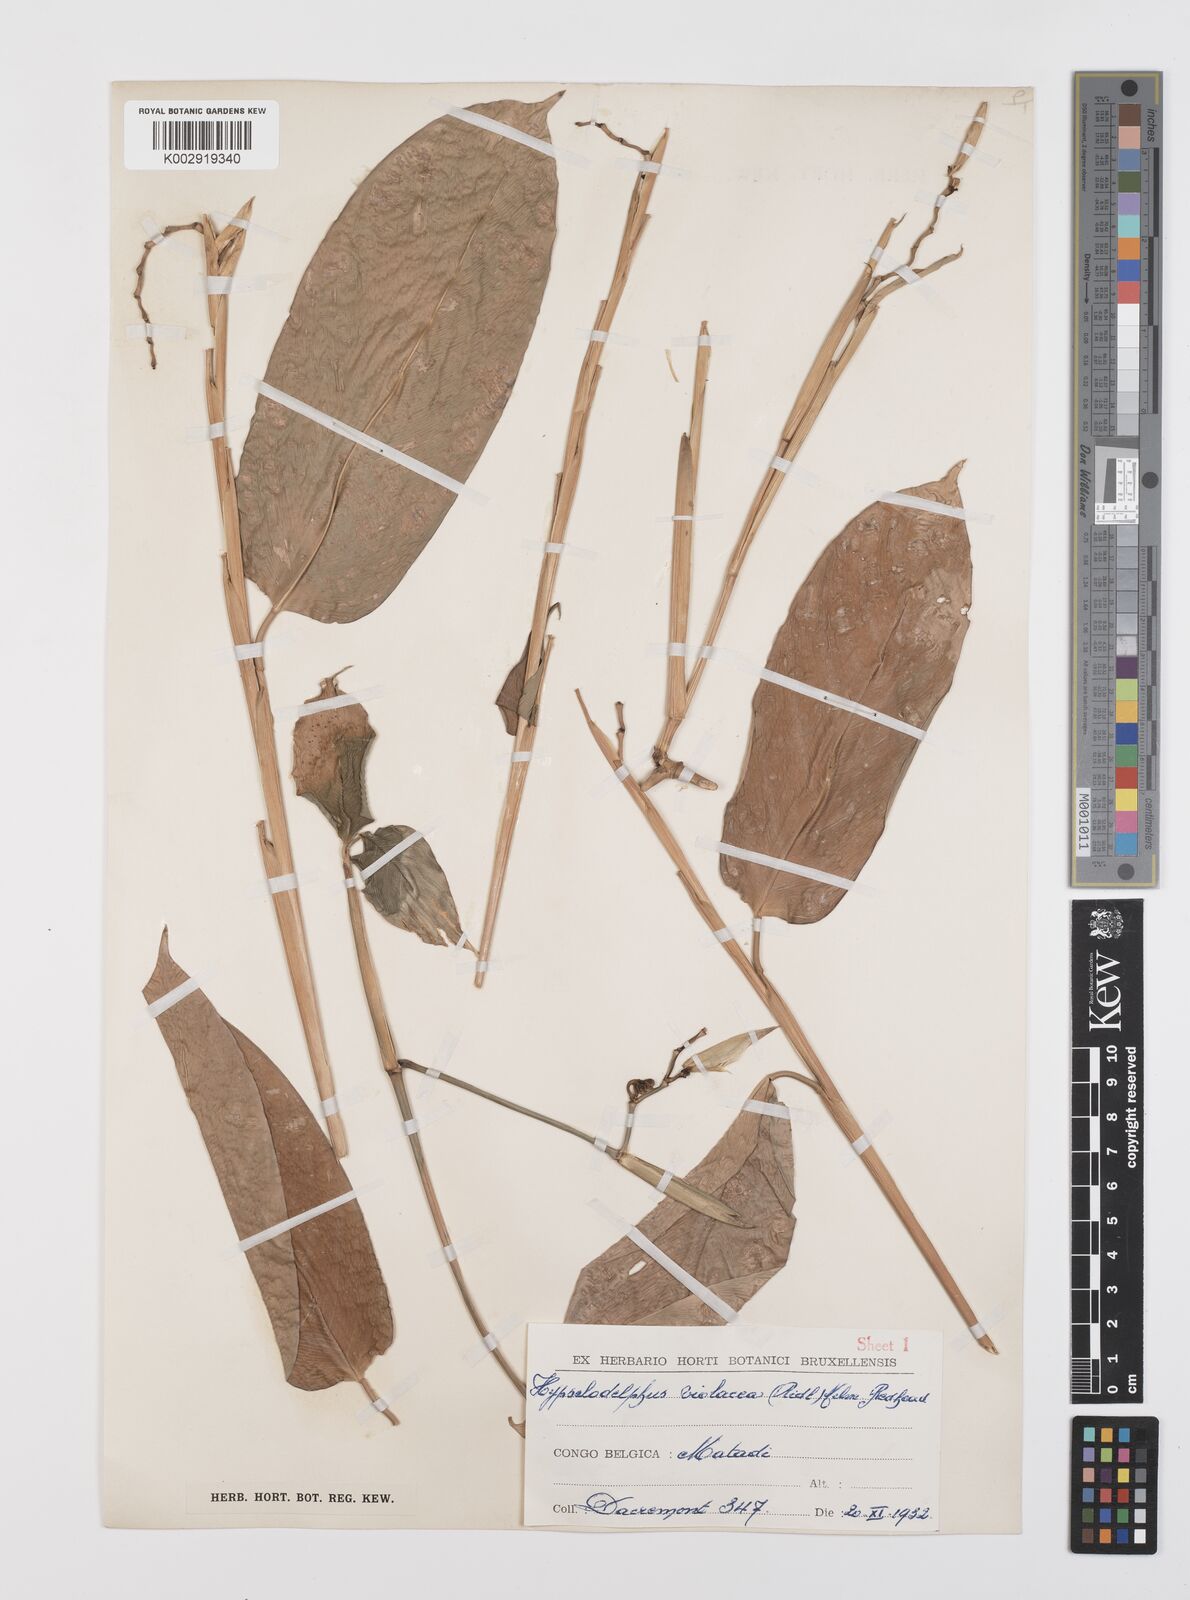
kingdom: Plantae
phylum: Tracheophyta
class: Liliopsida
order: Zingiberales
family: Marantaceae
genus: Hypselodelphys
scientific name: Hypselodelphys violacea
